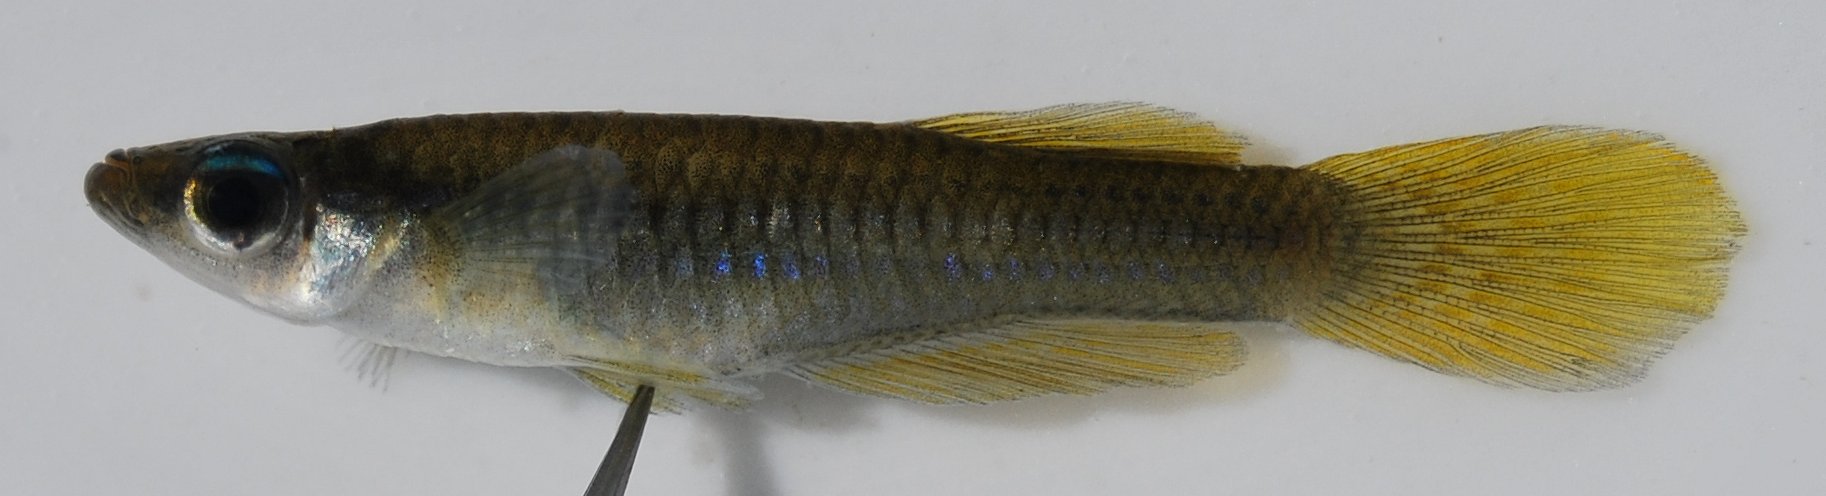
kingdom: Animalia
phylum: Chordata
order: Cyprinodontiformes
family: Poeciliidae
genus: Micropanchax
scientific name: Micropanchax johnstoni
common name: Johnston's topminnow
